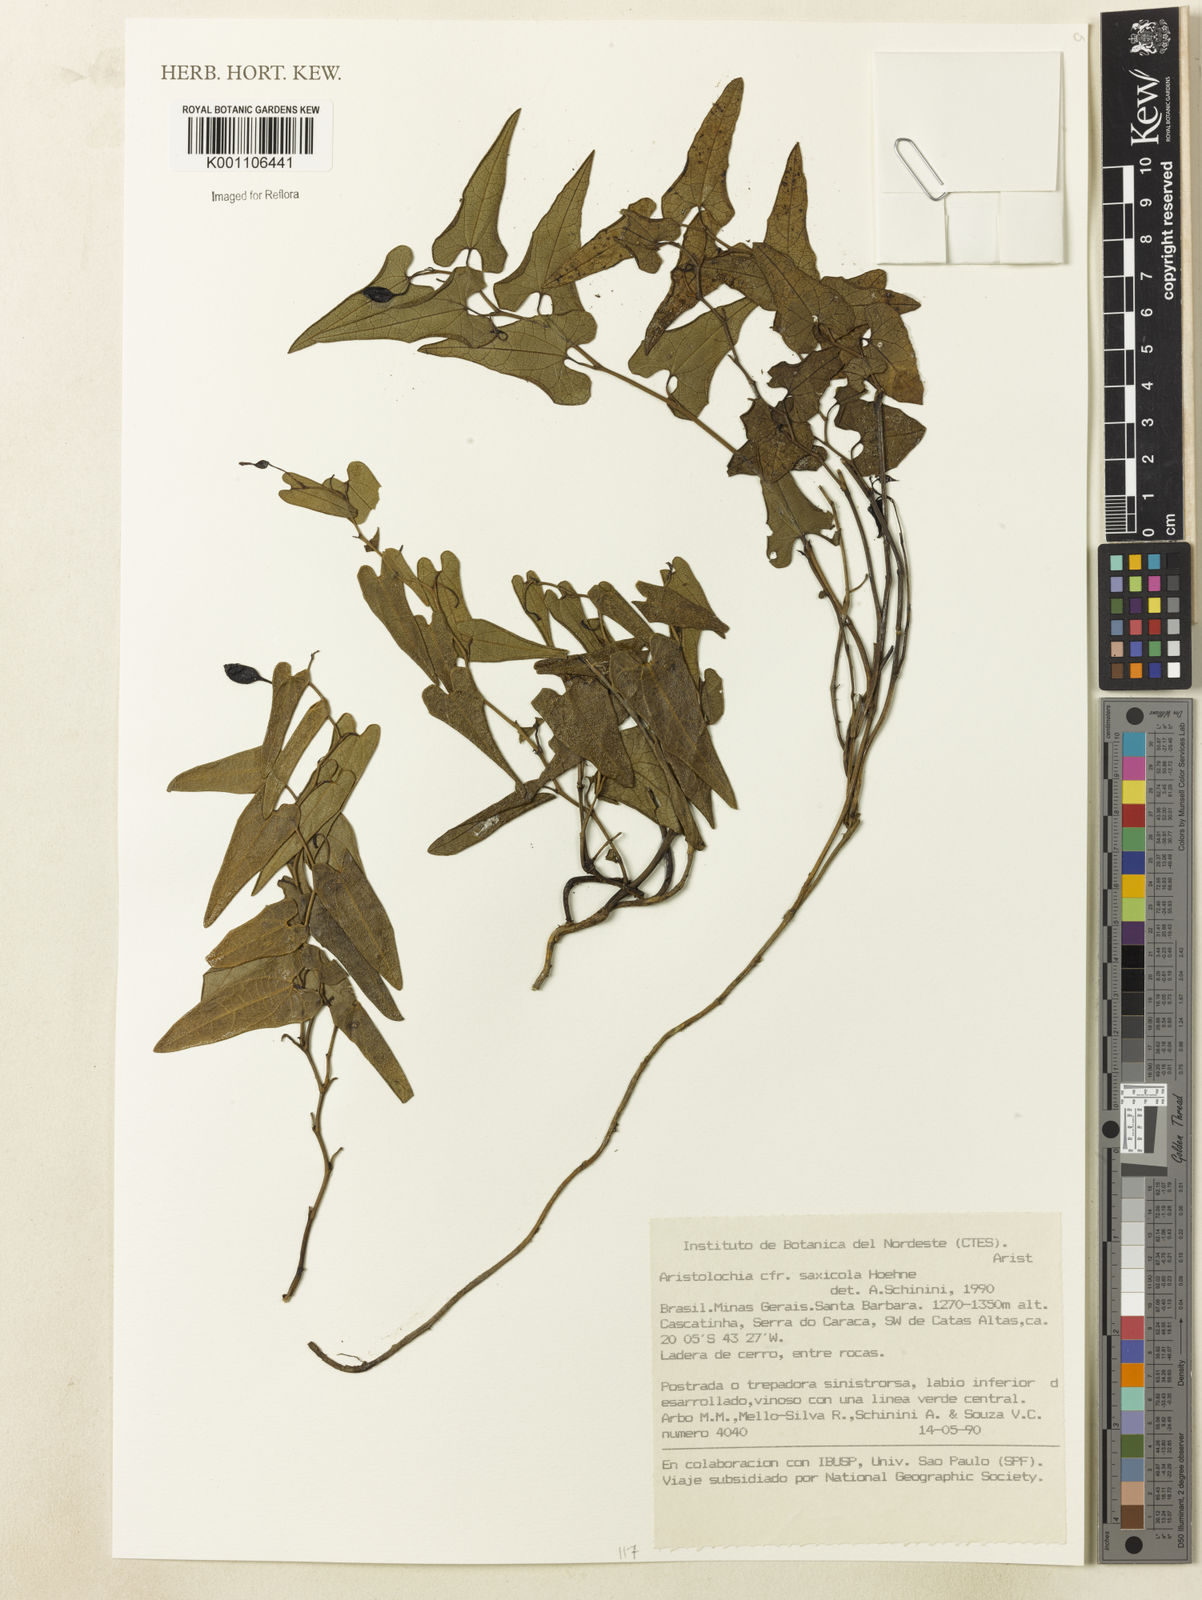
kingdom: Plantae
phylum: Tracheophyta
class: Magnoliopsida
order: Piperales
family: Aristolochiaceae
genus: Aristolochia
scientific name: Aristolochia smilacina
